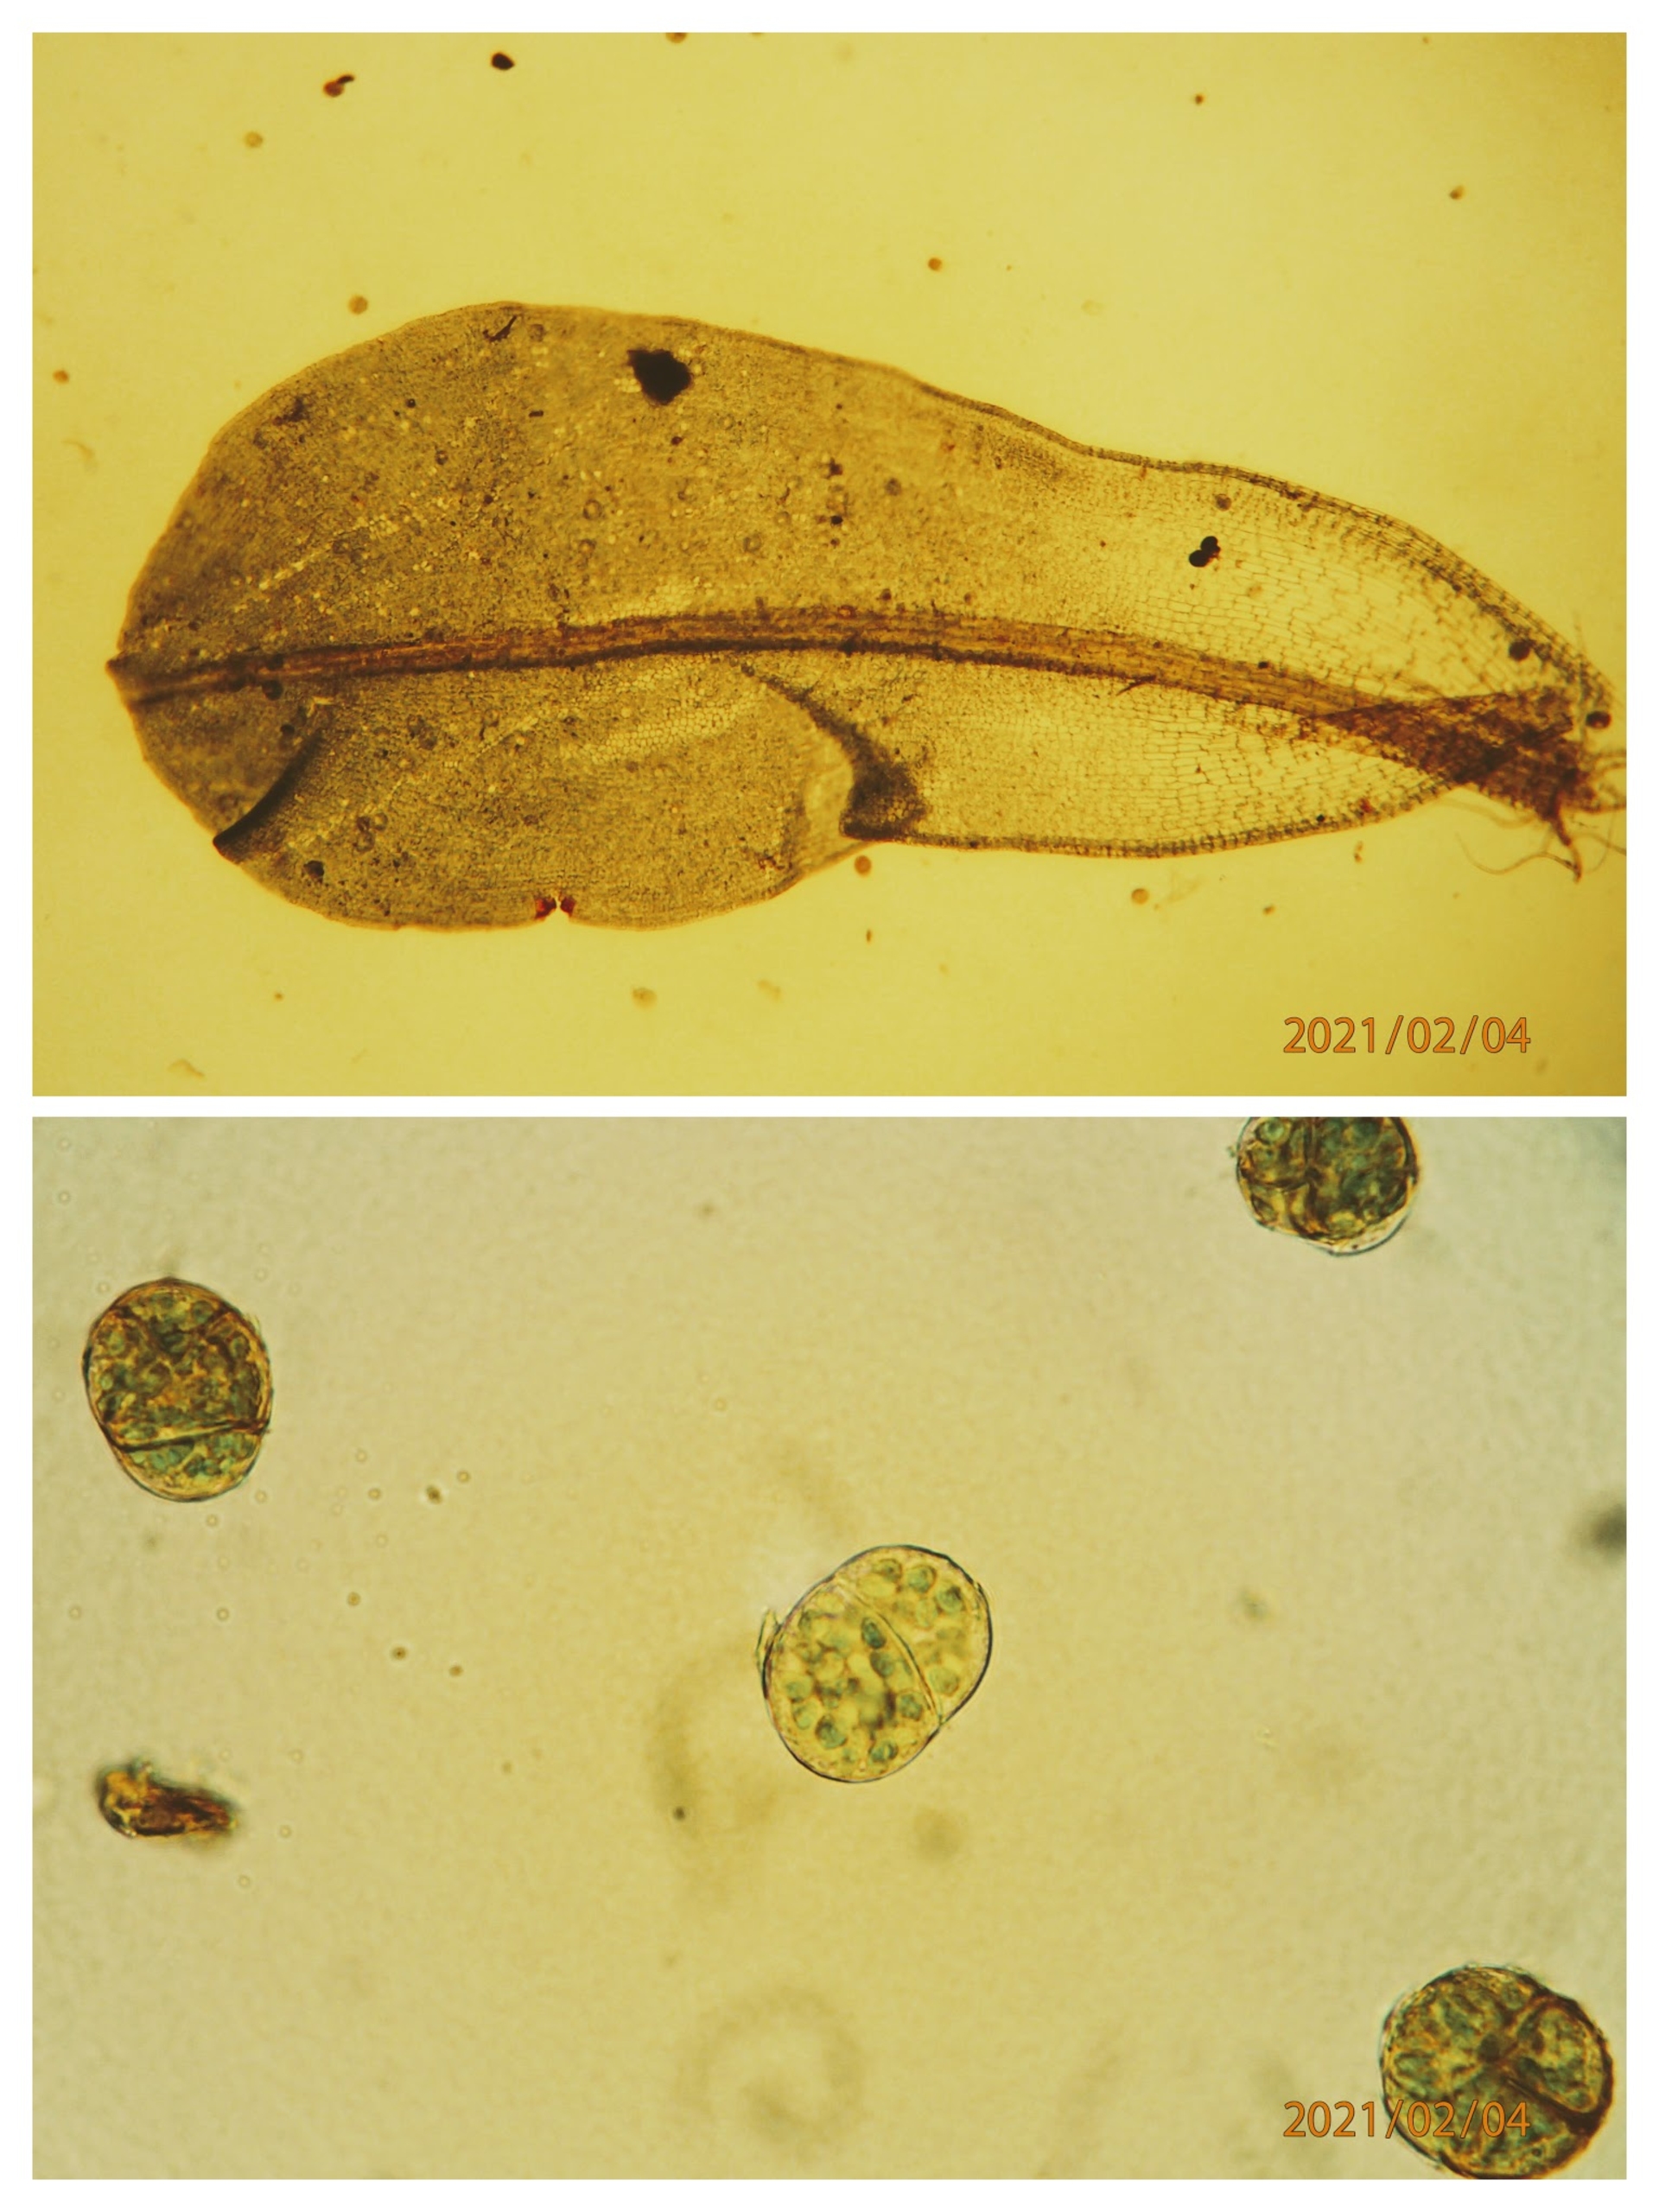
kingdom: Plantae
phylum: Bryophyta
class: Bryopsida
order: Pottiales
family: Pottiaceae
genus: Syntrichia
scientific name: Syntrichia latifolia
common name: Butbladet hårstjerne
